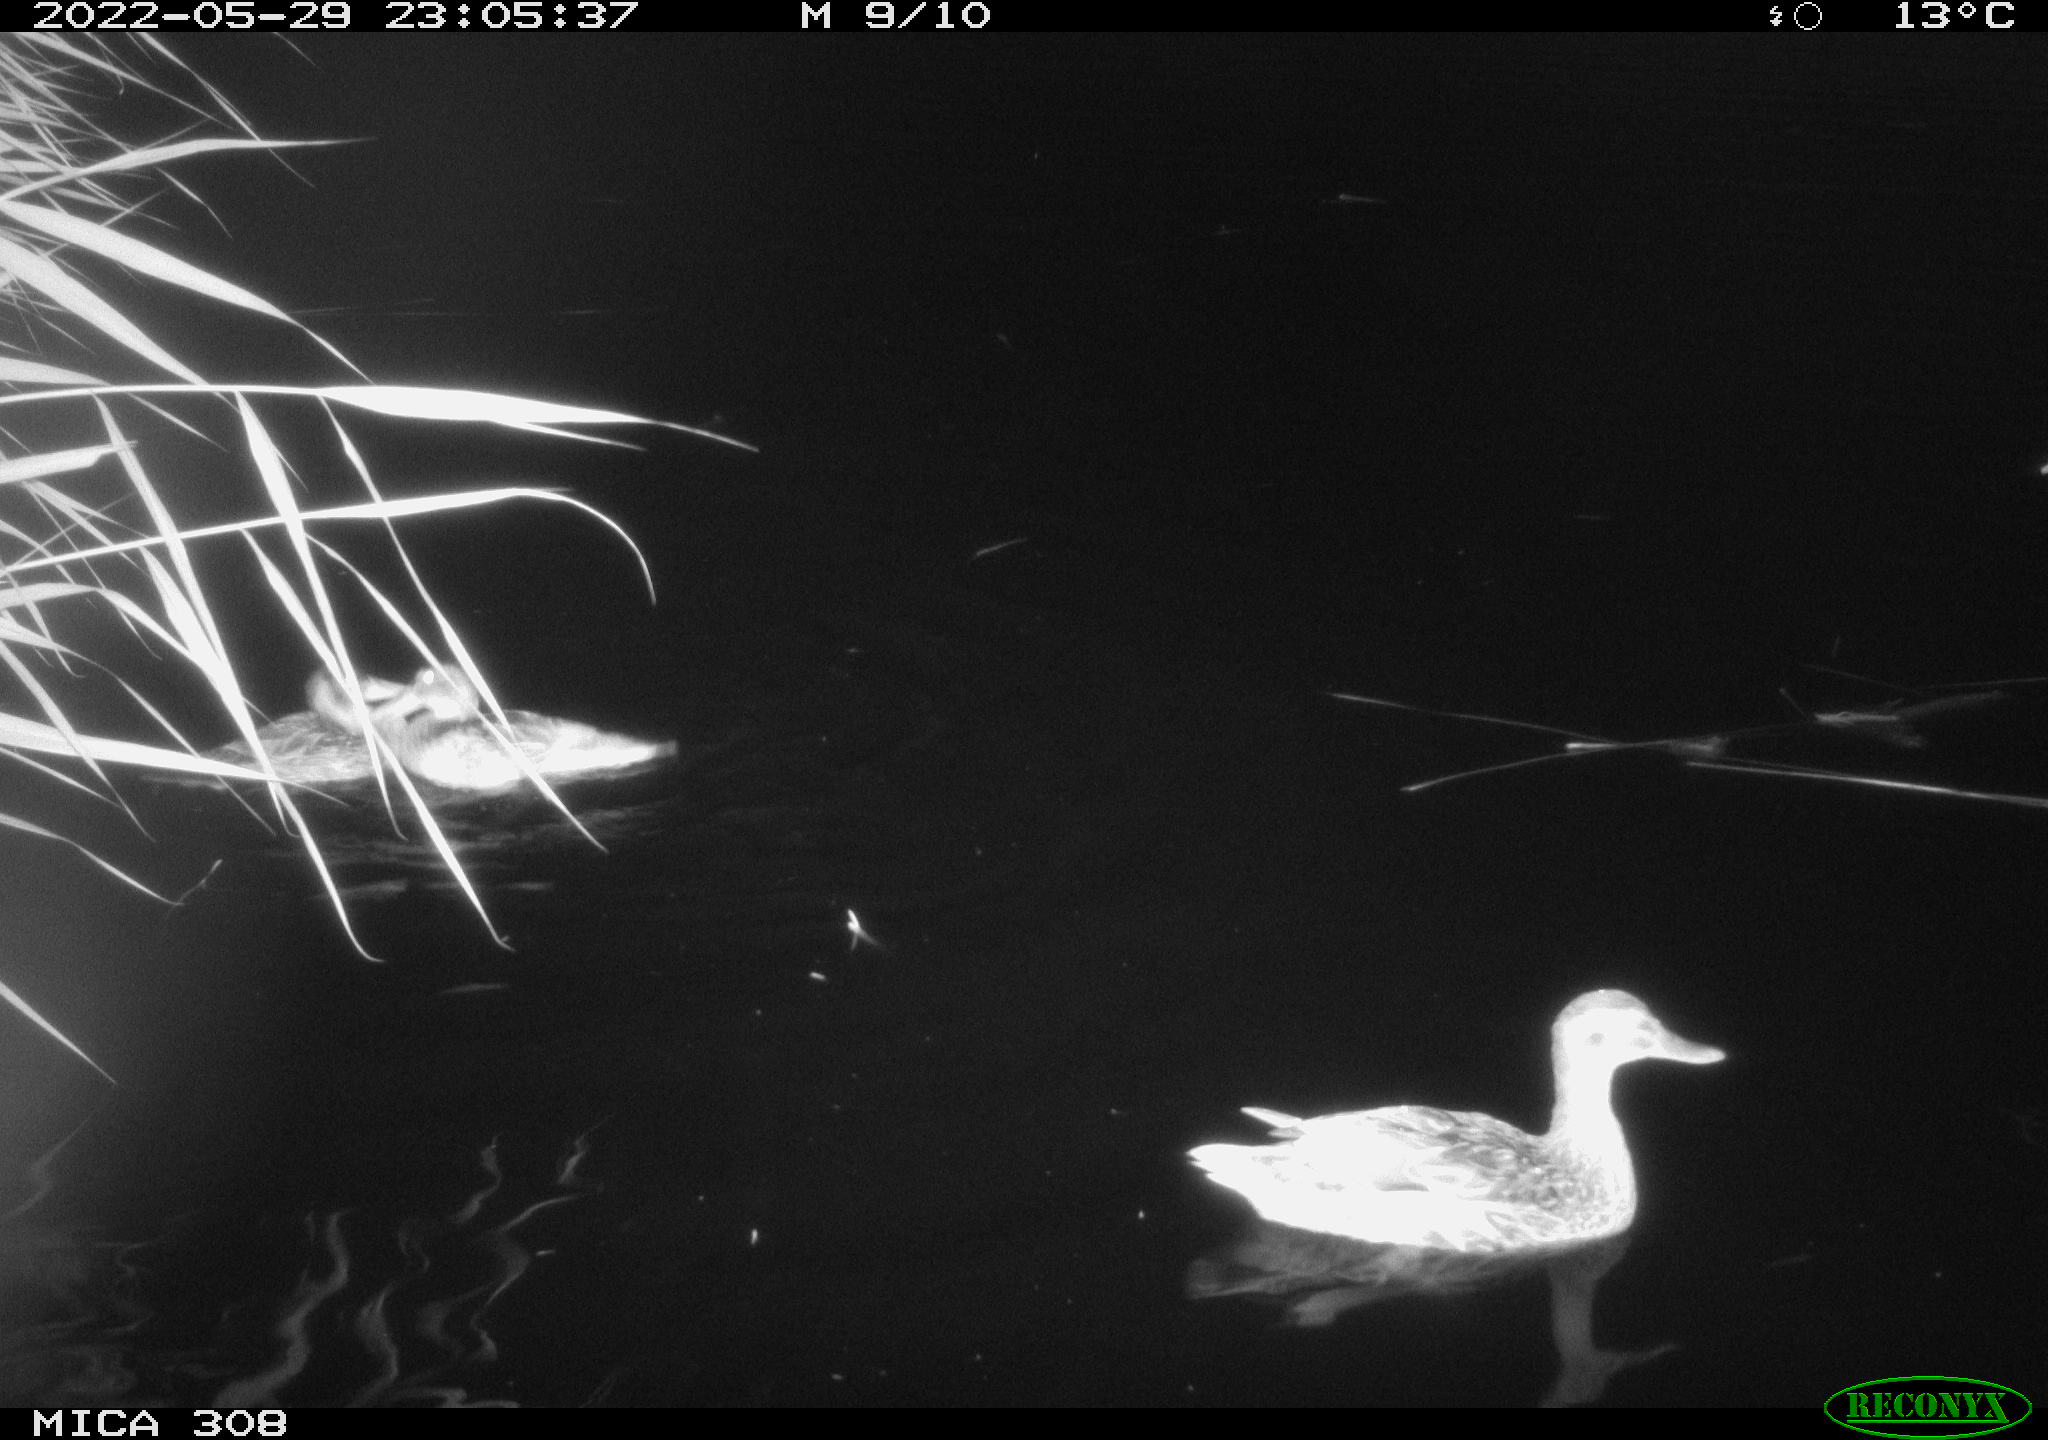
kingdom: Animalia
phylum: Chordata
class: Aves
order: Anseriformes
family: Anatidae
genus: Anas
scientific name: Anas platyrhynchos
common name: Mallard
